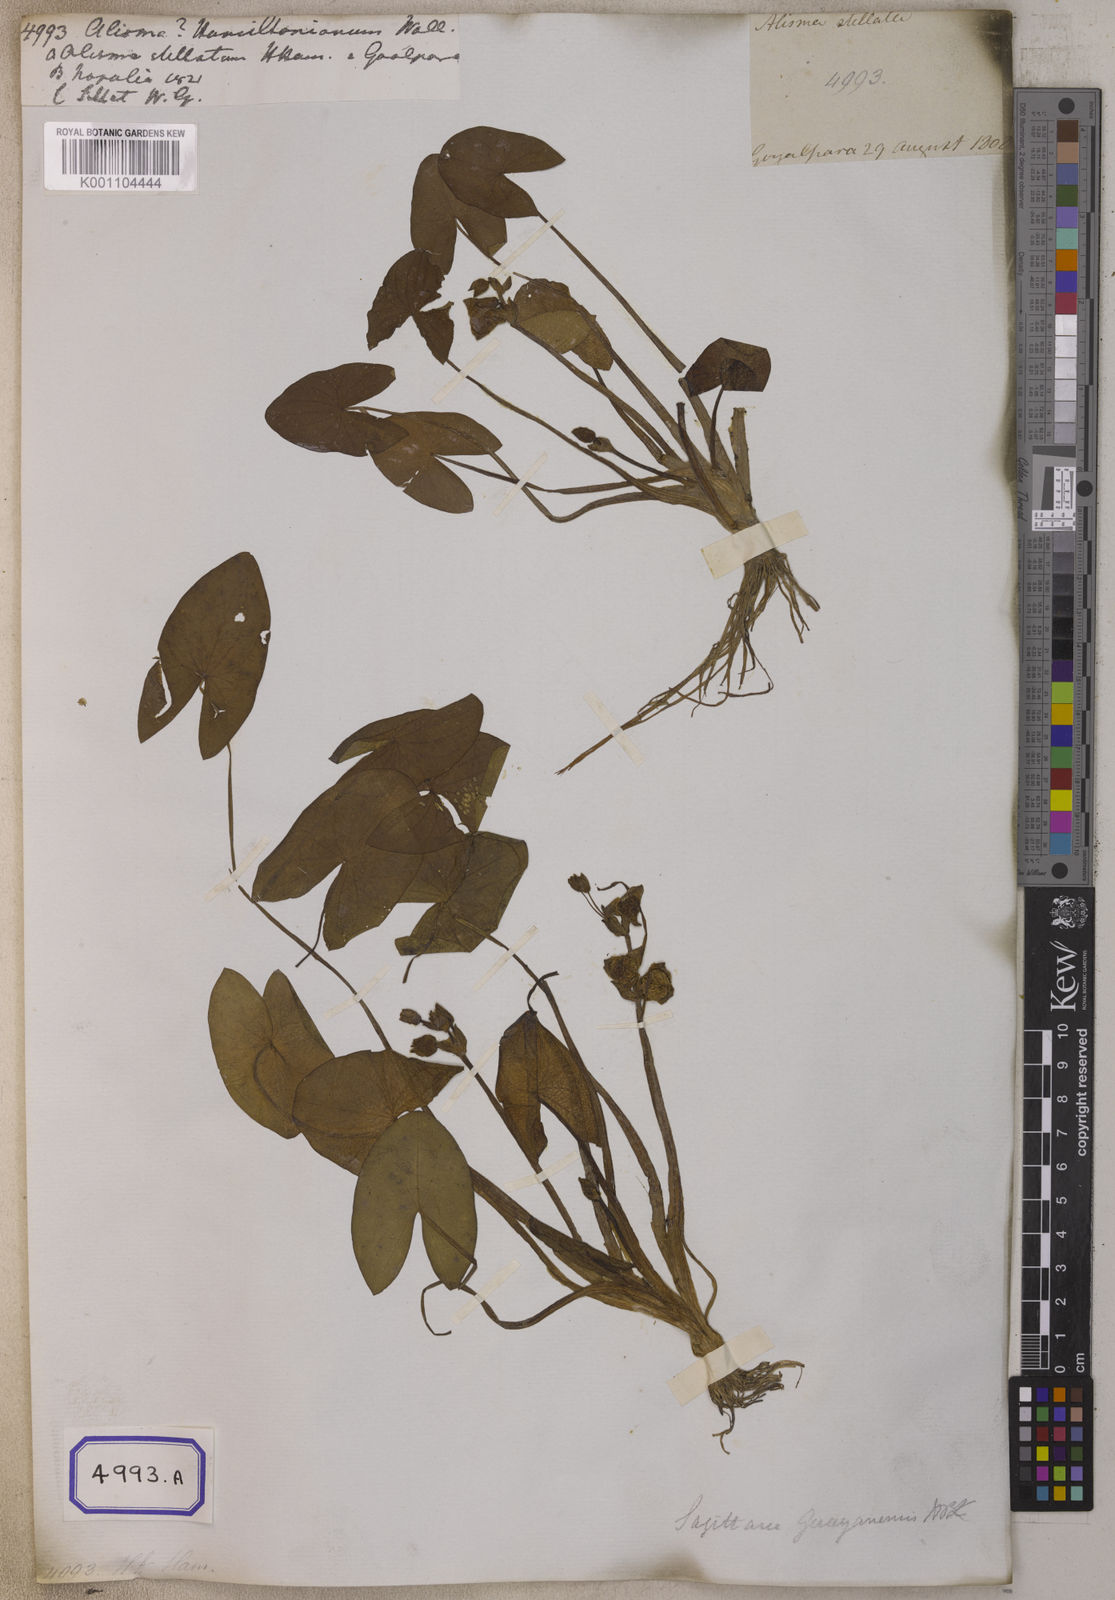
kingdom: Plantae
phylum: Tracheophyta
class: Liliopsida
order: Alismatales
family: Alismataceae
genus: Sagittaria
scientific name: Sagittaria guayanensis
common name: Guyanese arrowhead
